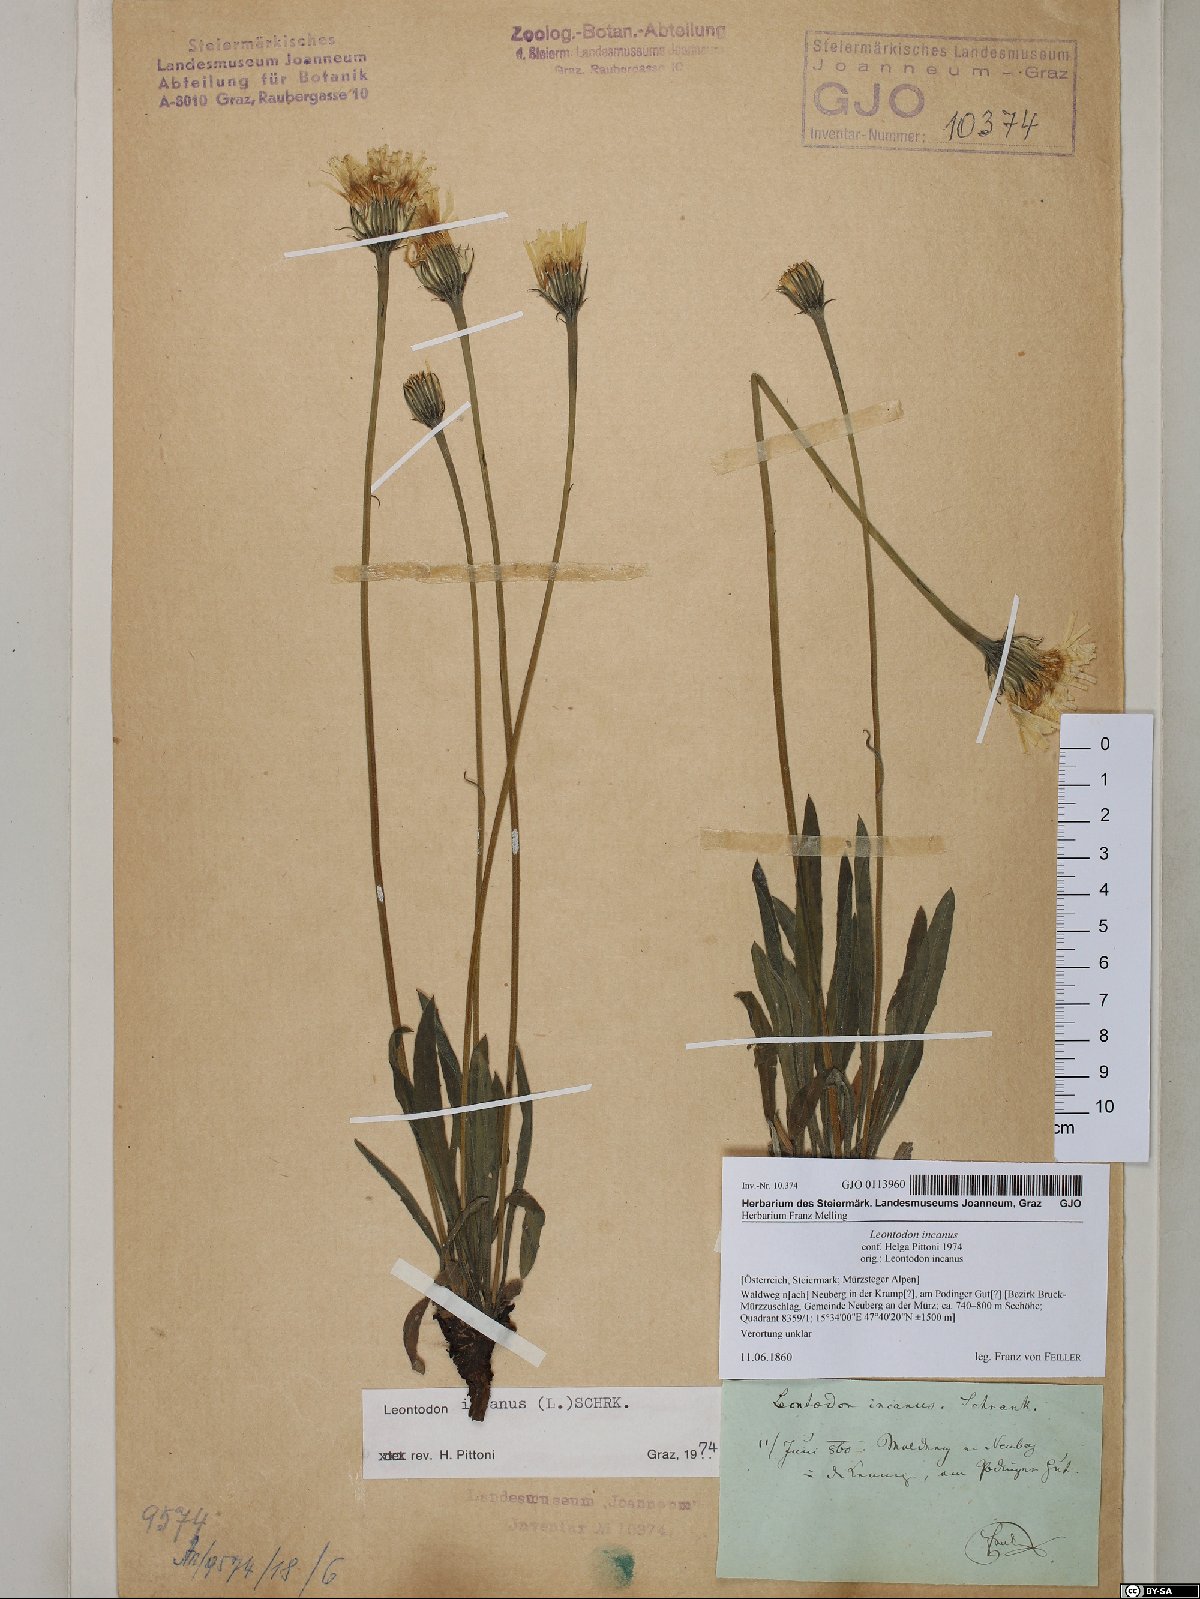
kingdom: Plantae
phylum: Tracheophyta
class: Magnoliopsida
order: Asterales
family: Asteraceae
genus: Leontodon
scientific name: Leontodon incanus
